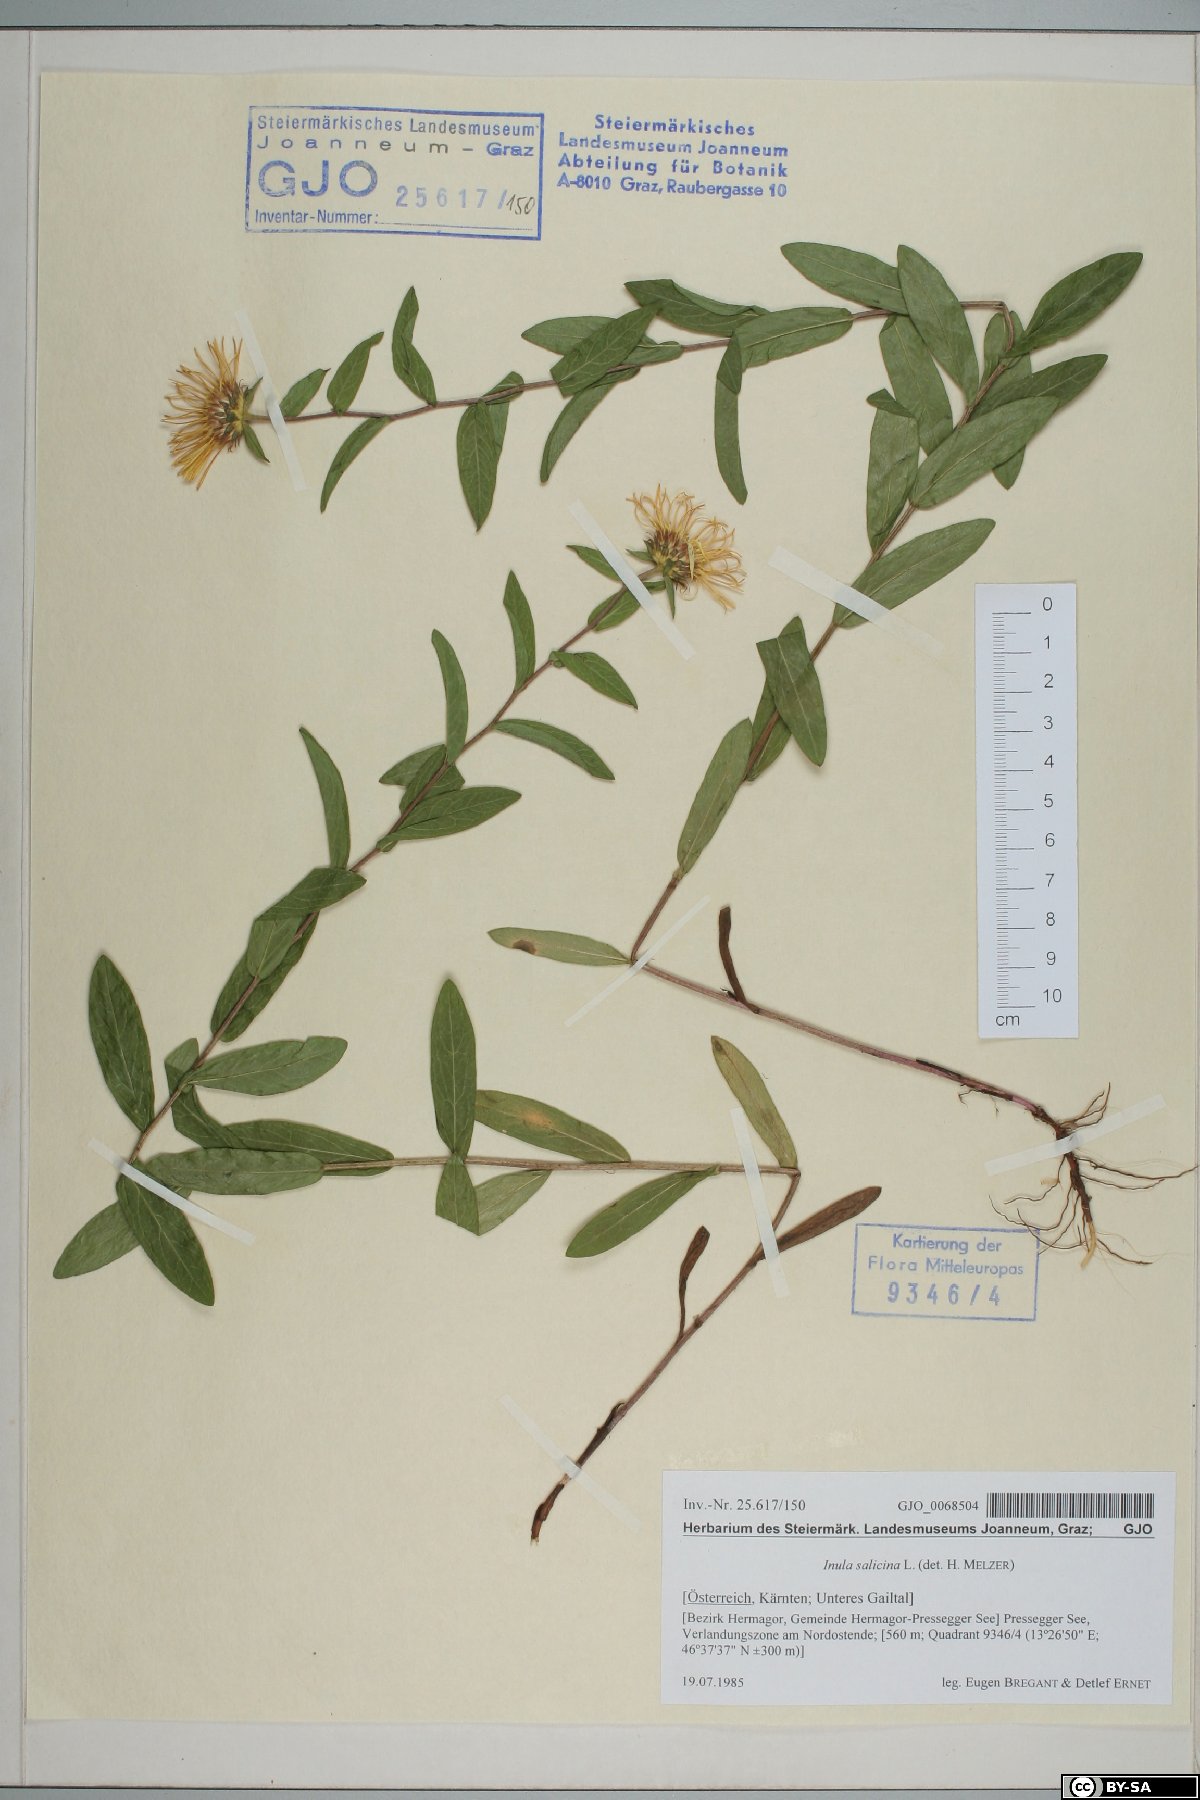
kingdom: Plantae
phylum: Tracheophyta
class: Magnoliopsida
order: Asterales
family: Asteraceae
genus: Pentanema
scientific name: Pentanema salicinum
